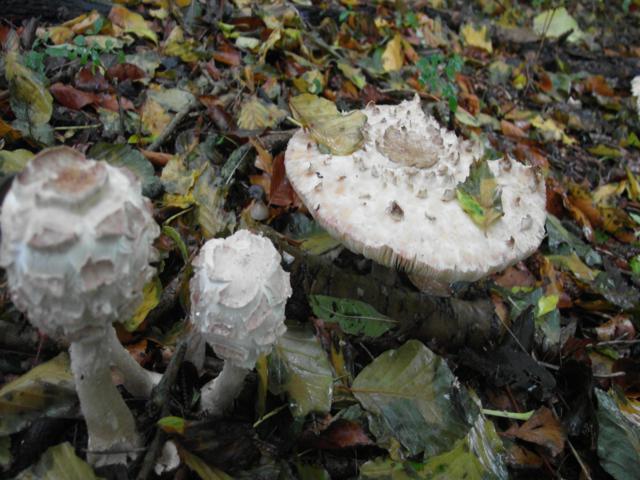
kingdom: Fungi
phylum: Basidiomycota
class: Agaricomycetes
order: Agaricales
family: Agaricaceae
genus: Chlorophyllum
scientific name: Chlorophyllum rhacodes
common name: ægte rabarberhat
